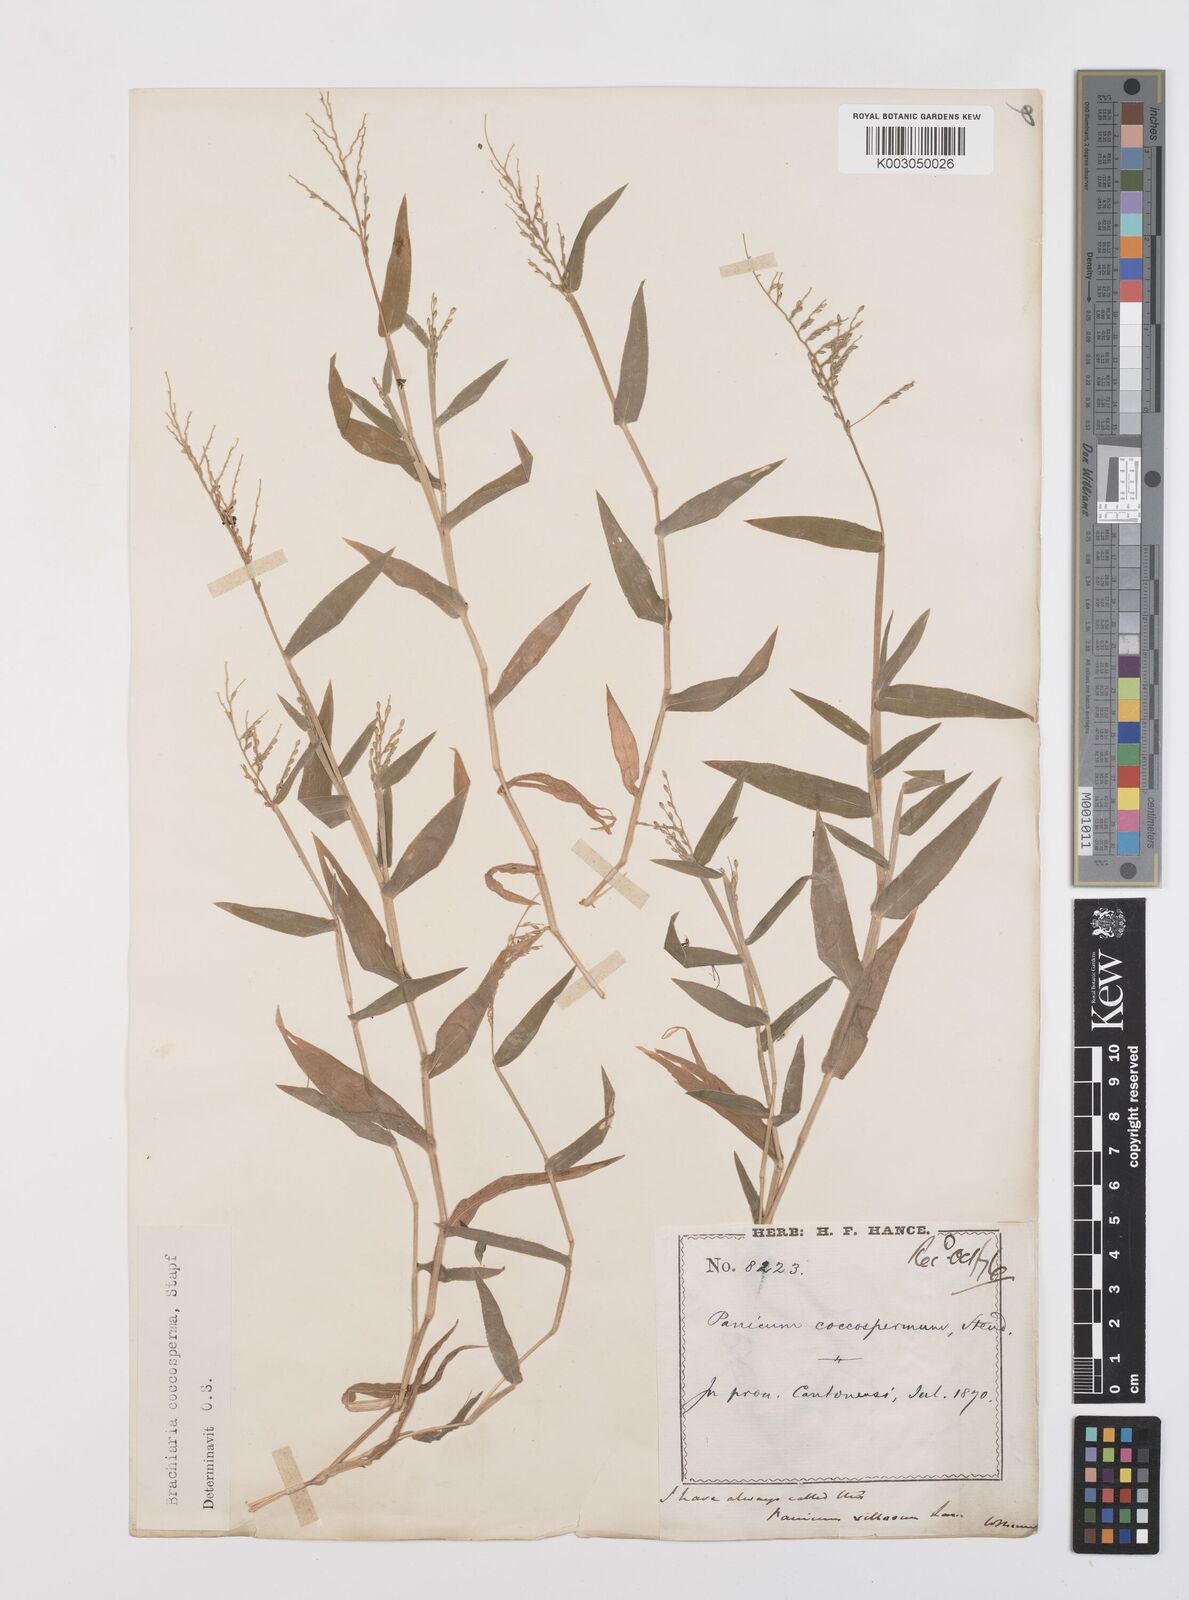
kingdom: Plantae
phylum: Tracheophyta
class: Liliopsida
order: Poales
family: Poaceae
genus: Urochloa
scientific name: Urochloa villosa
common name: Hairy signalgrass
